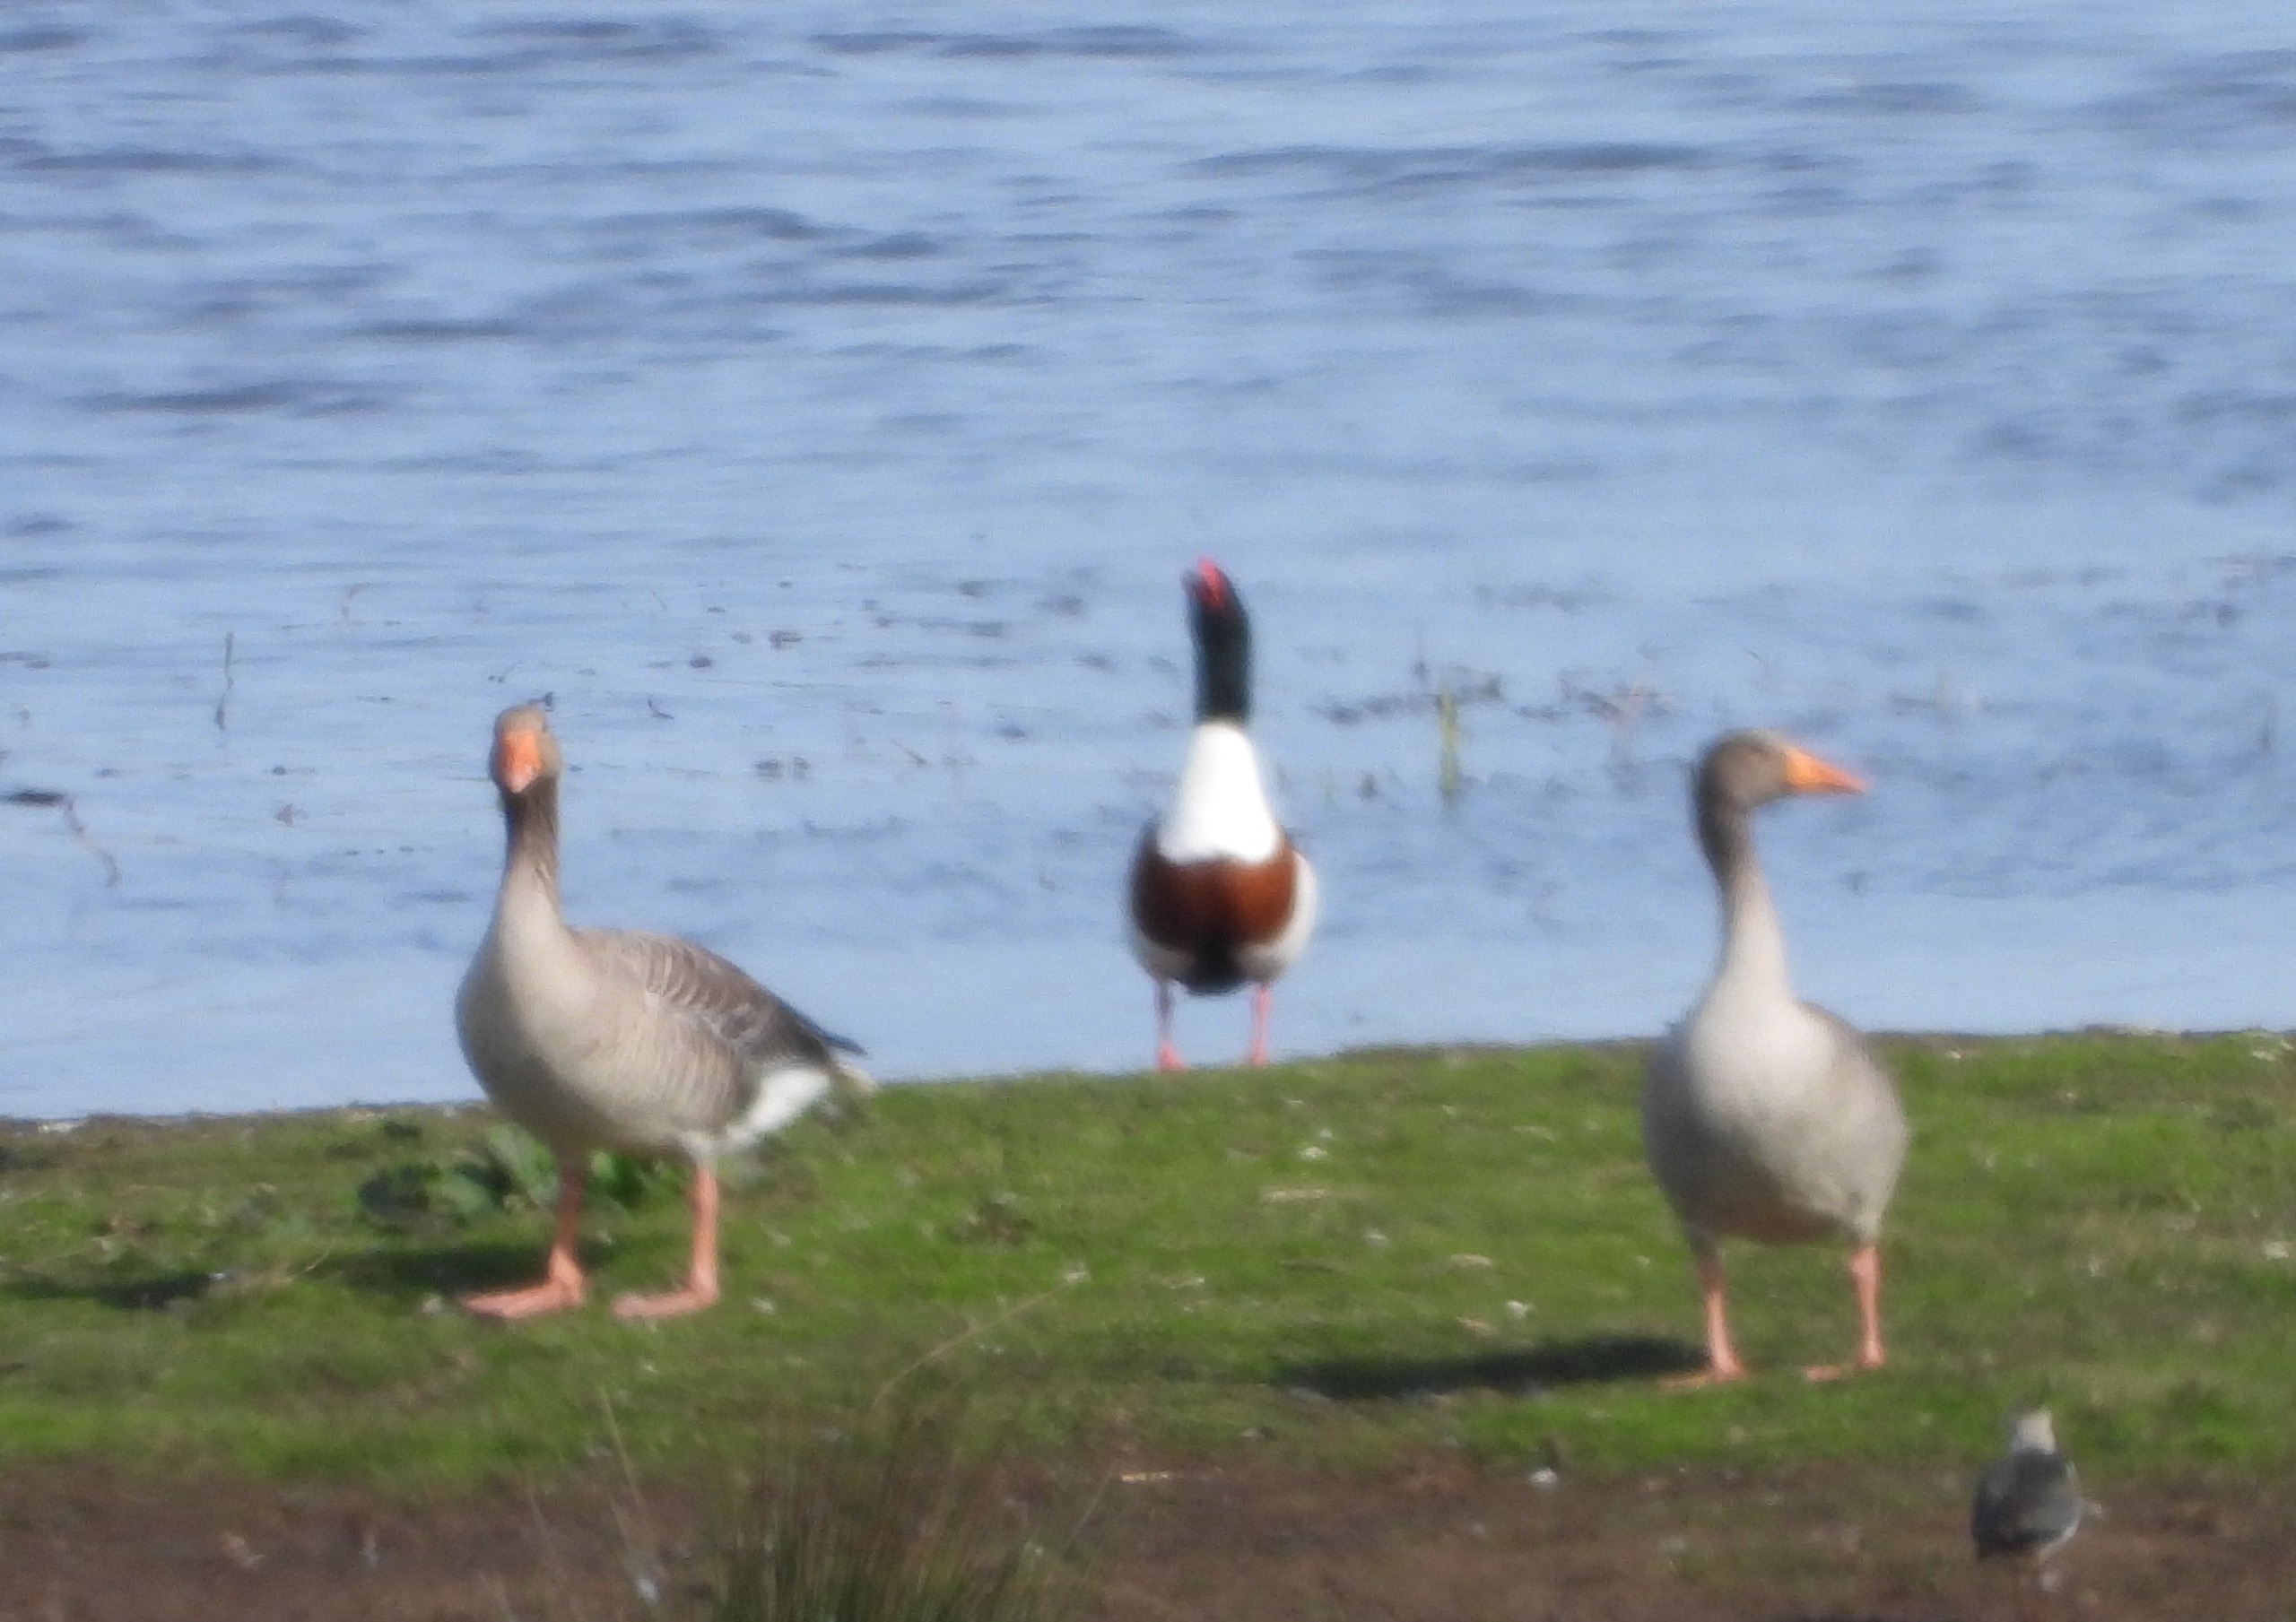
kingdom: Animalia
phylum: Chordata
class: Aves
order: Anseriformes
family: Anatidae
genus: Tadorna
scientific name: Tadorna tadorna
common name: Gravand
